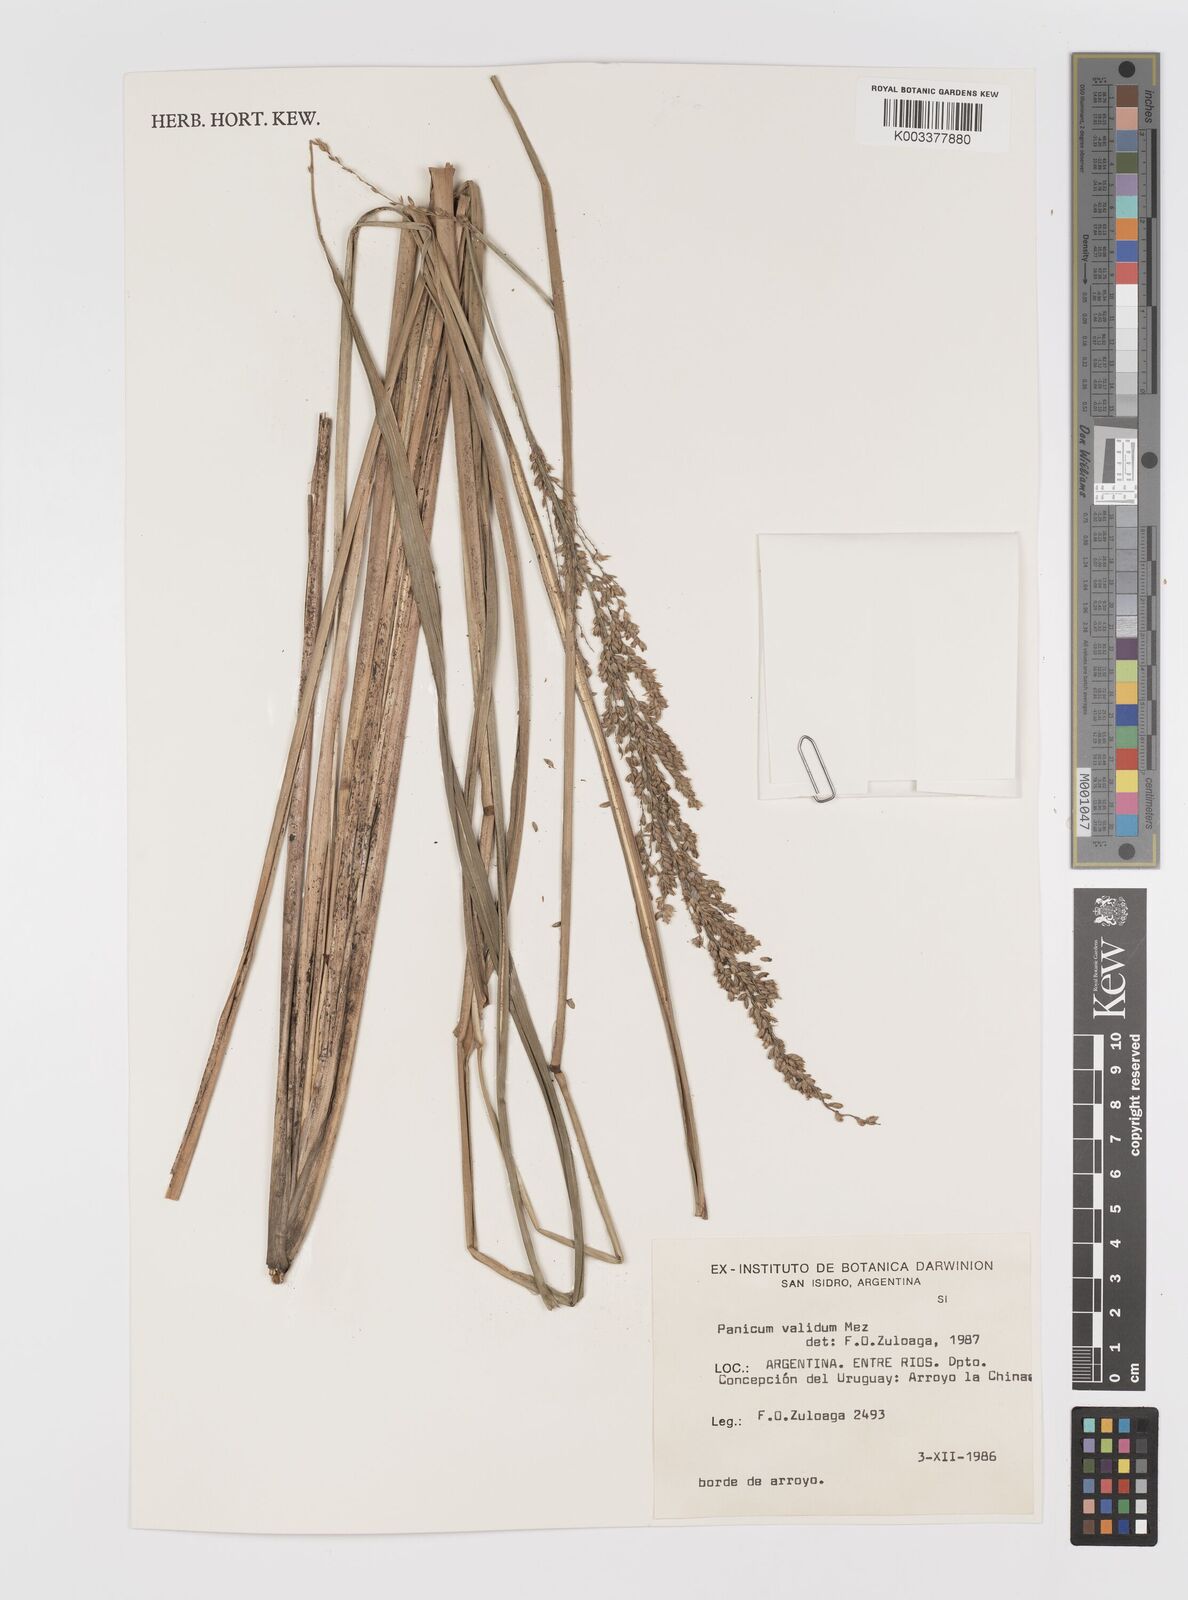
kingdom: Plantae
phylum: Tracheophyta
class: Liliopsida
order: Poales
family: Poaceae
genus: Osvaldoa
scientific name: Osvaldoa valida
